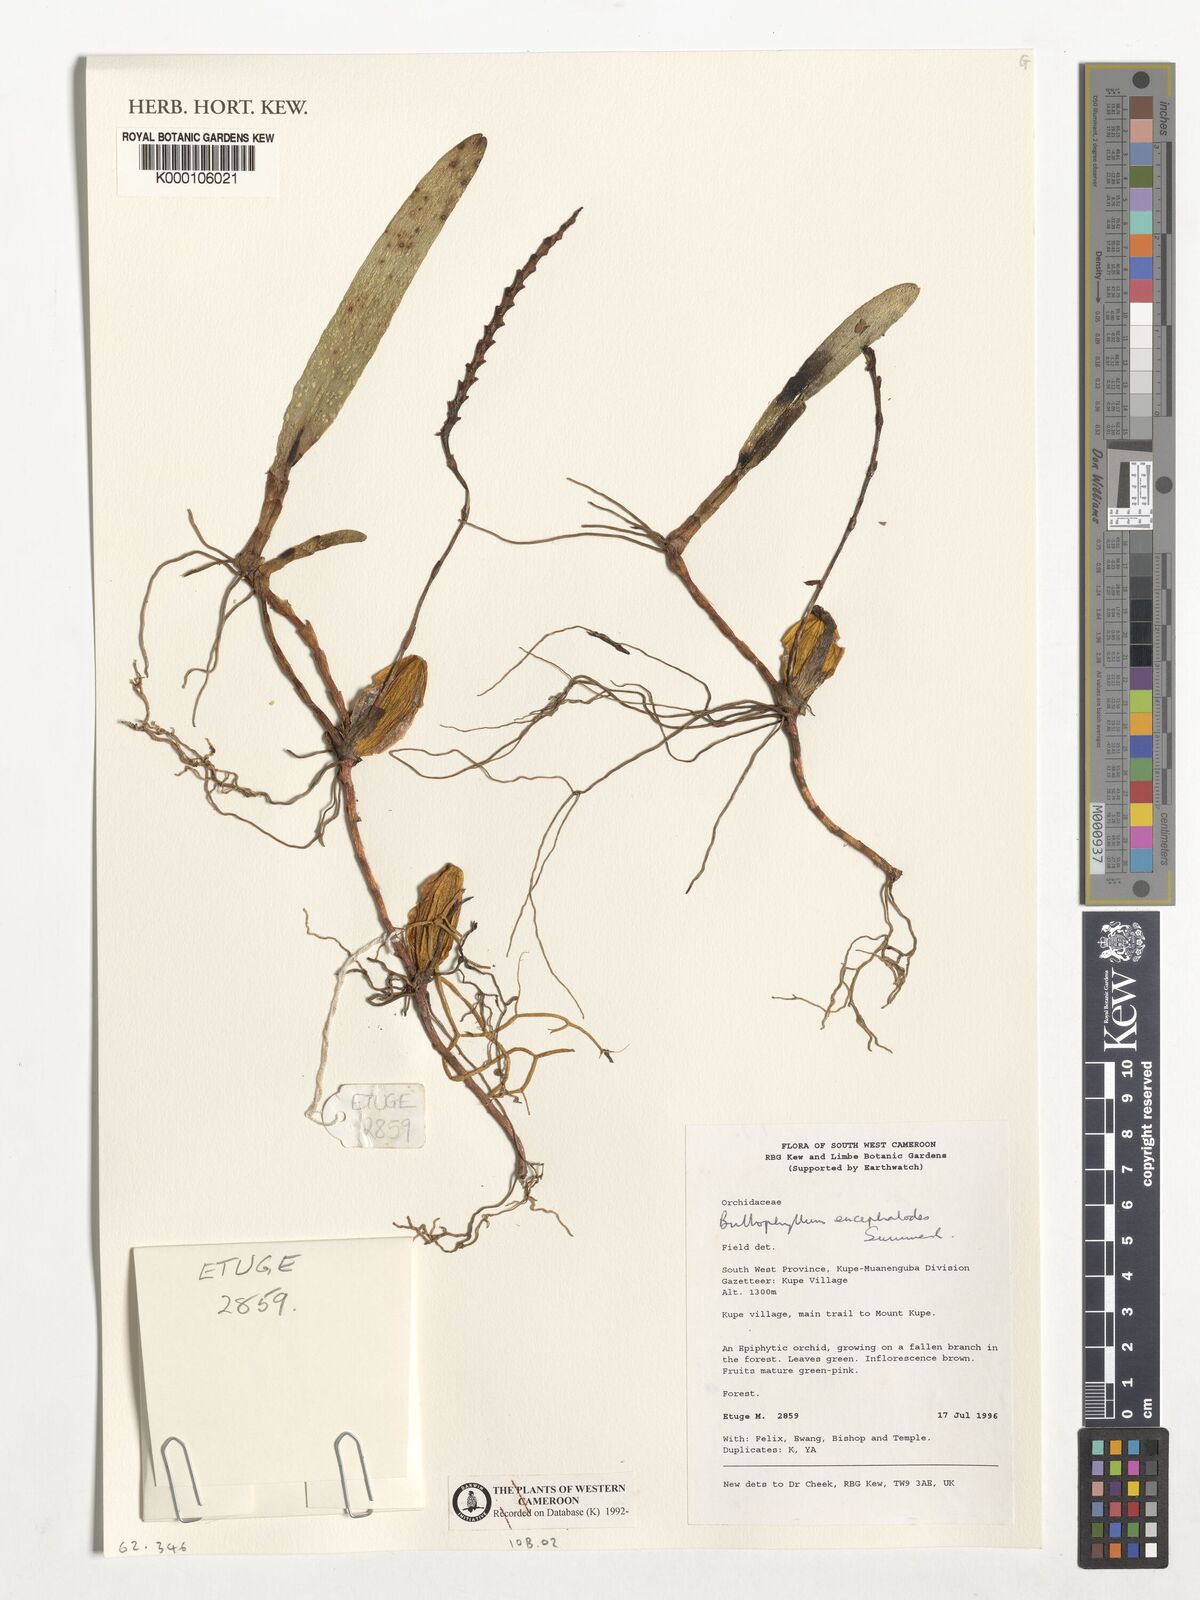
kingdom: Plantae
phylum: Tracheophyta
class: Liliopsida
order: Asparagales
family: Orchidaceae
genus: Bulbophyllum
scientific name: Bulbophyllum encephalodes
